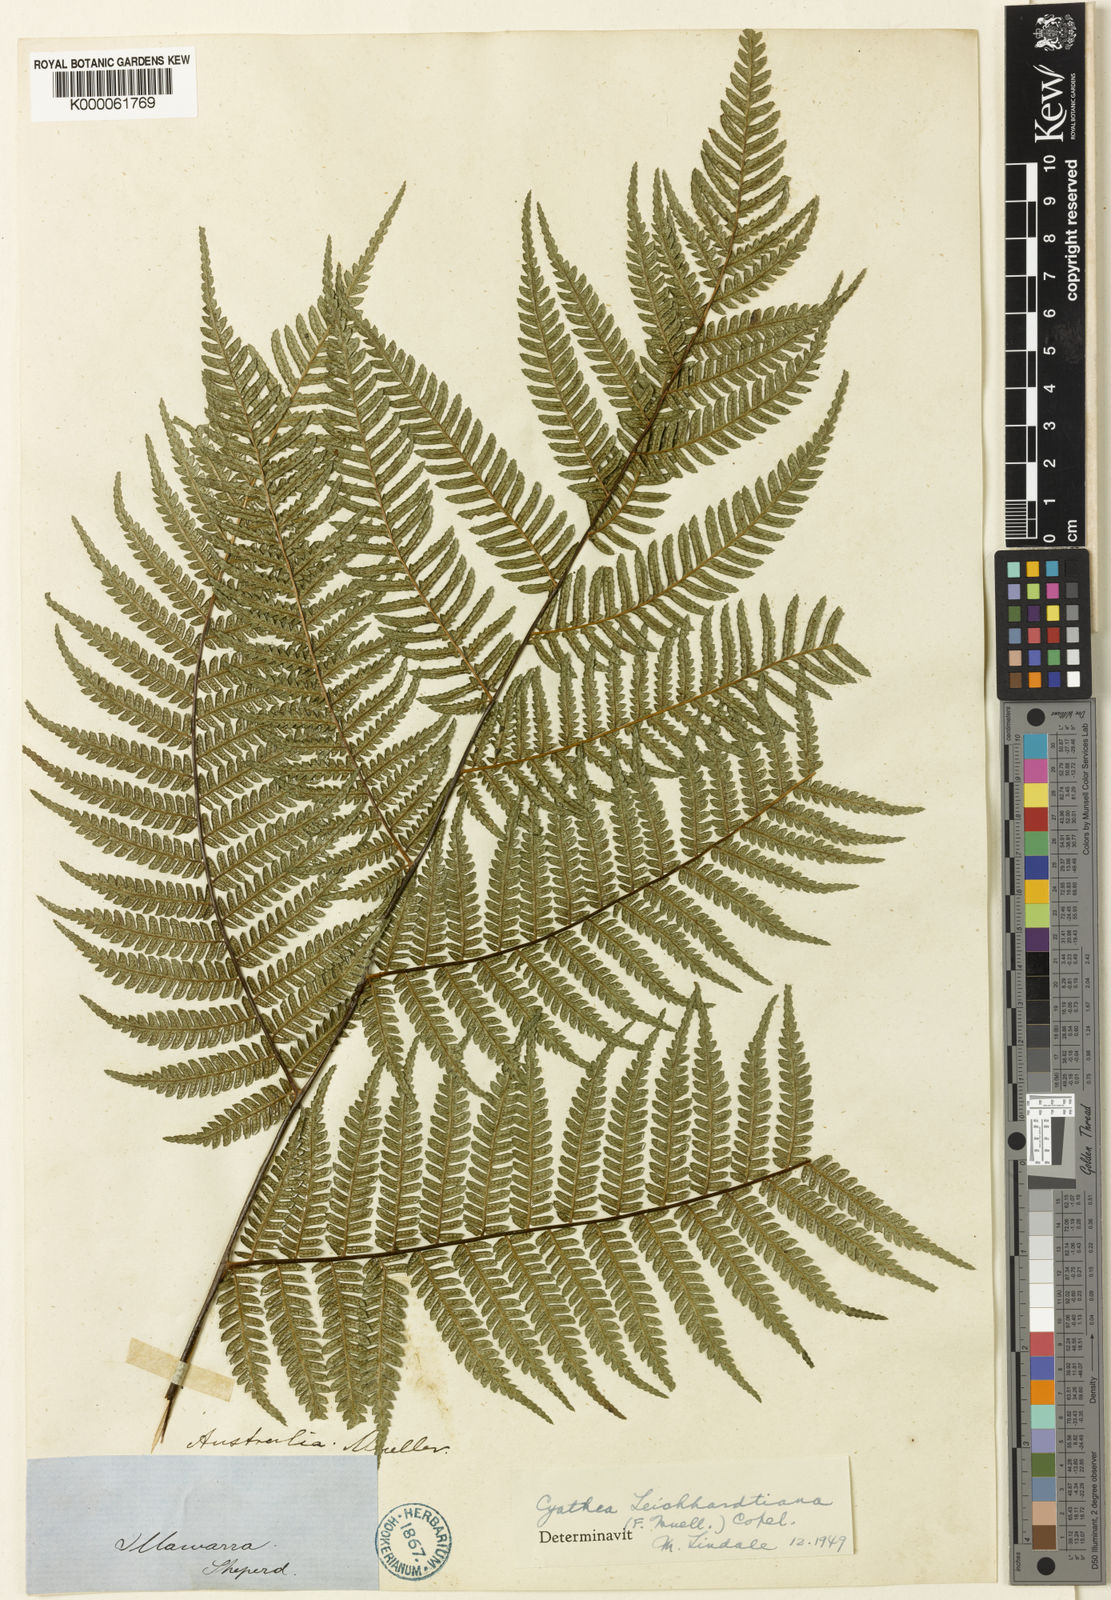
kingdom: Plantae
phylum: Tracheophyta
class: Polypodiopsida
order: Cyatheales
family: Cyatheaceae
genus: Alsophila
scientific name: Alsophila leichhardtiana
